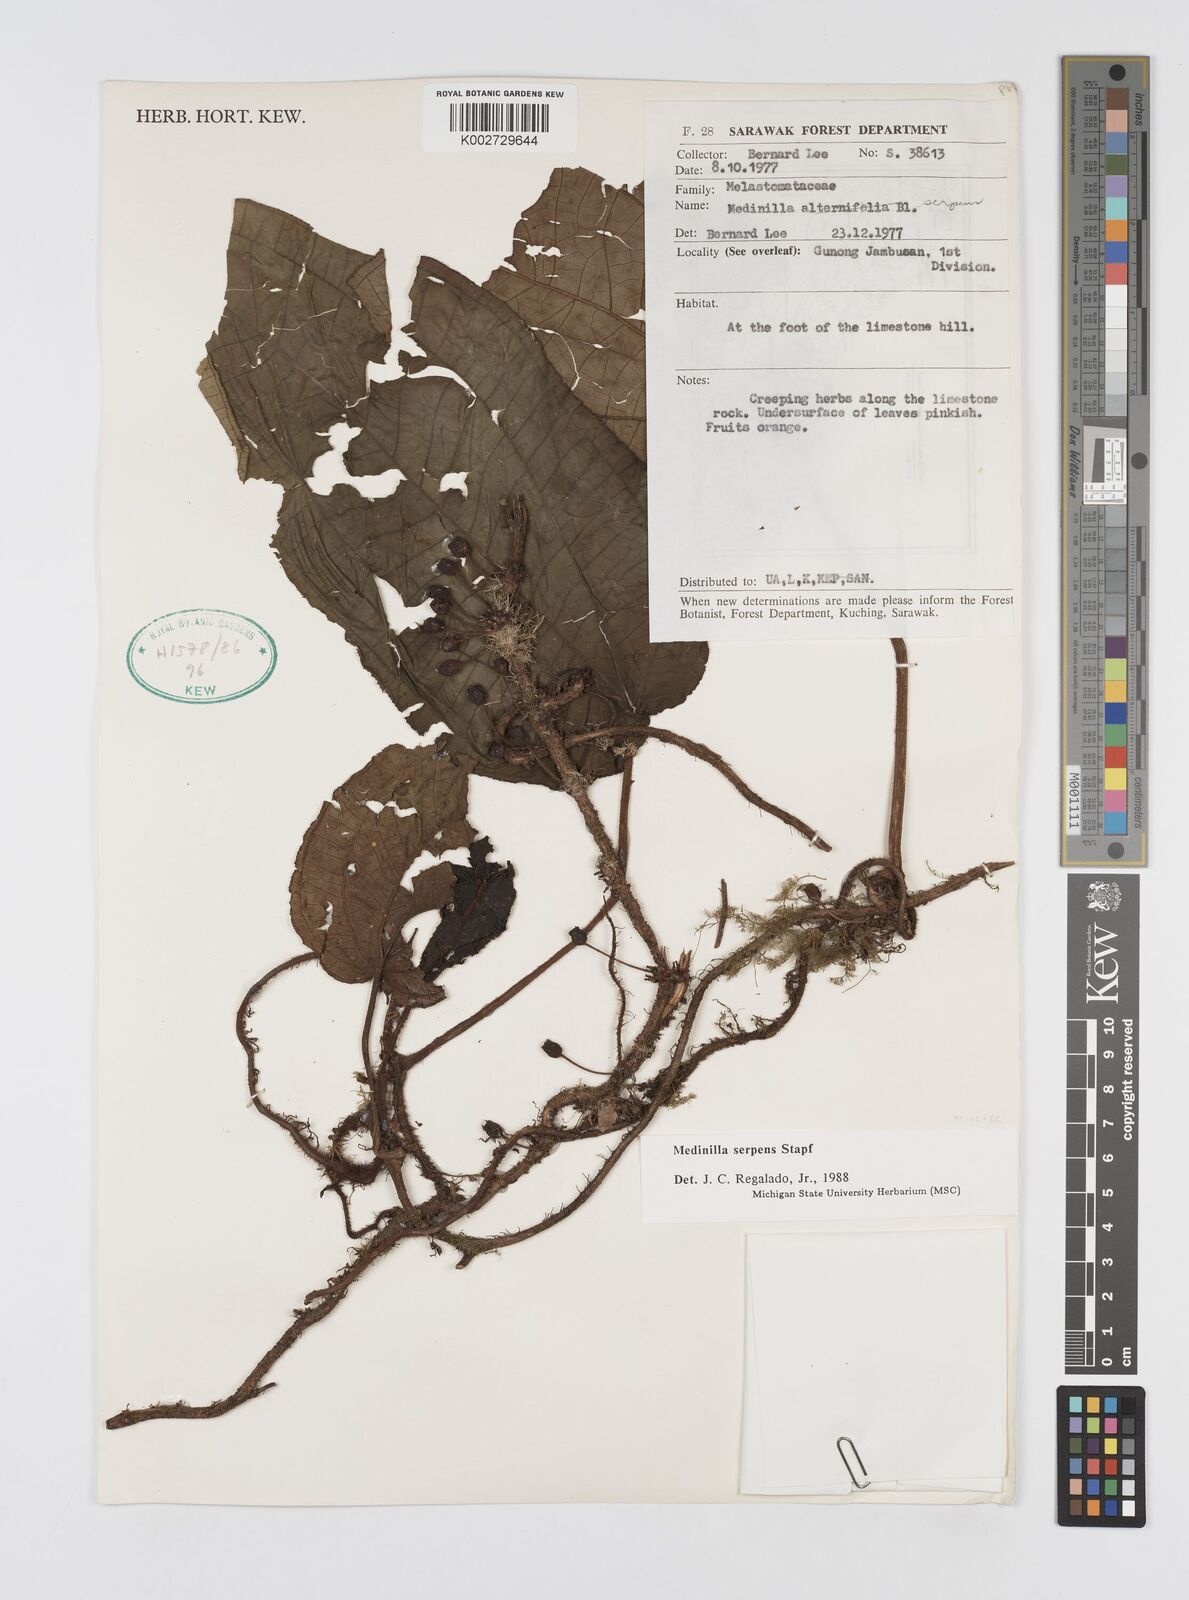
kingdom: Plantae
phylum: Tracheophyta
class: Magnoliopsida
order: Myrtales
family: Melastomataceae
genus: Heteroblemma
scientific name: Heteroblemma serpens
